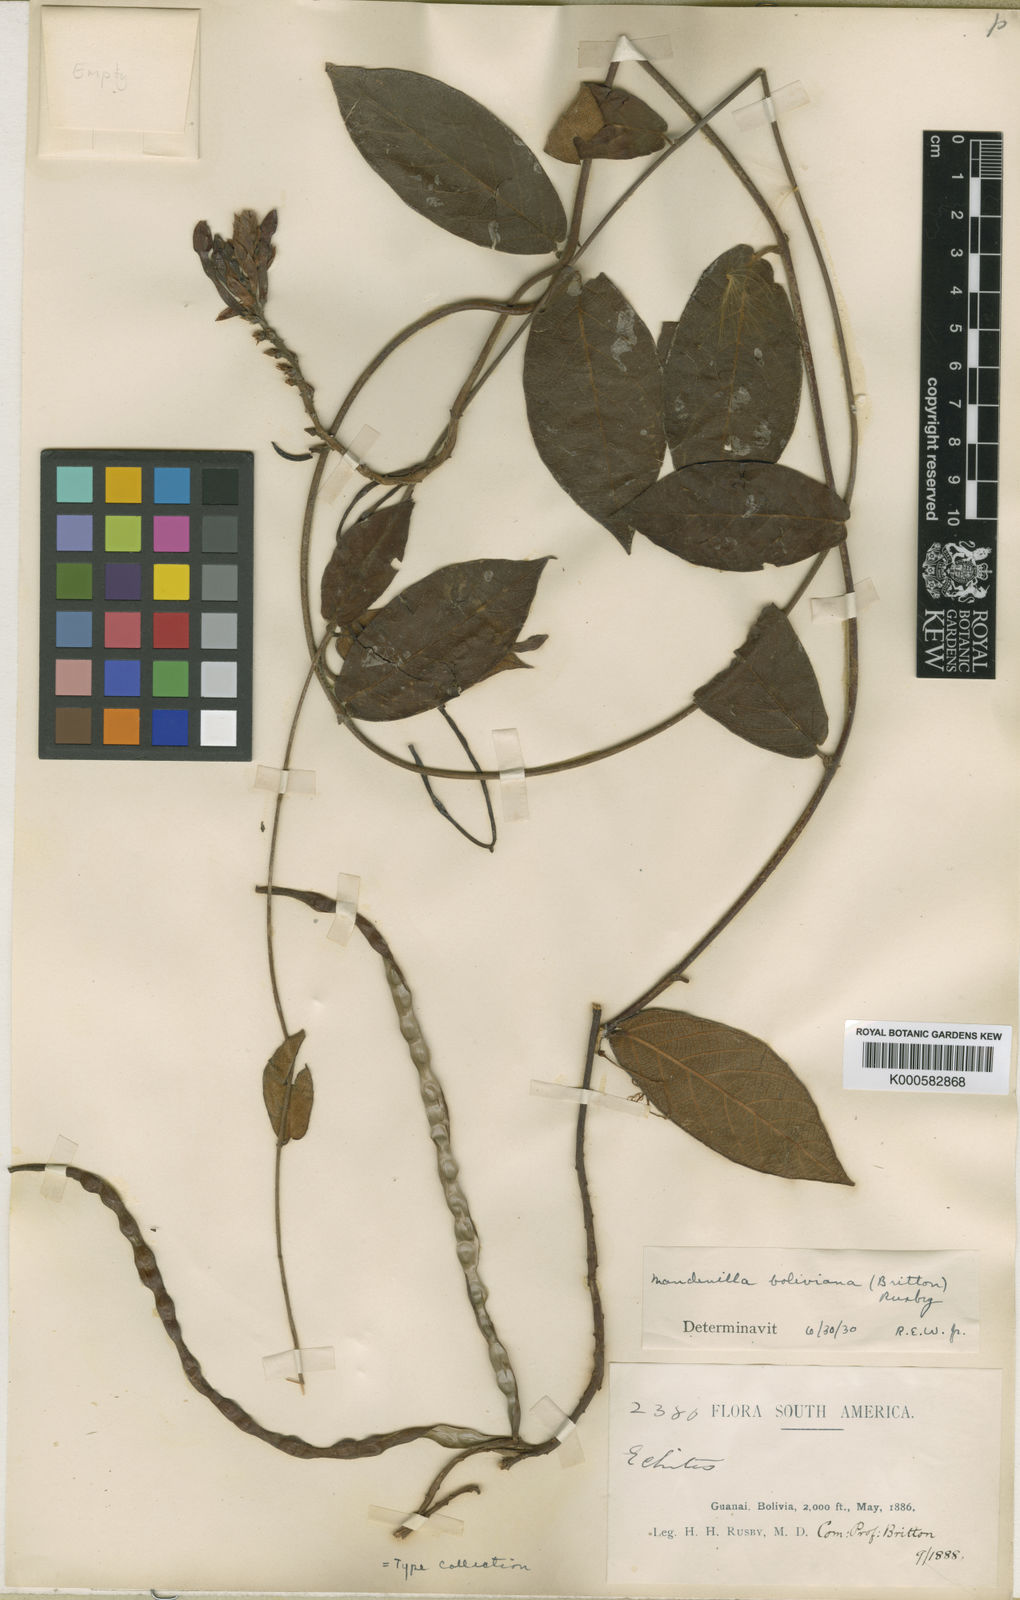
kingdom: Plantae
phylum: Tracheophyta
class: Magnoliopsida
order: Gentianales
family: Apocynaceae
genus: Mandevilla
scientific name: Mandevilla rugellosa
